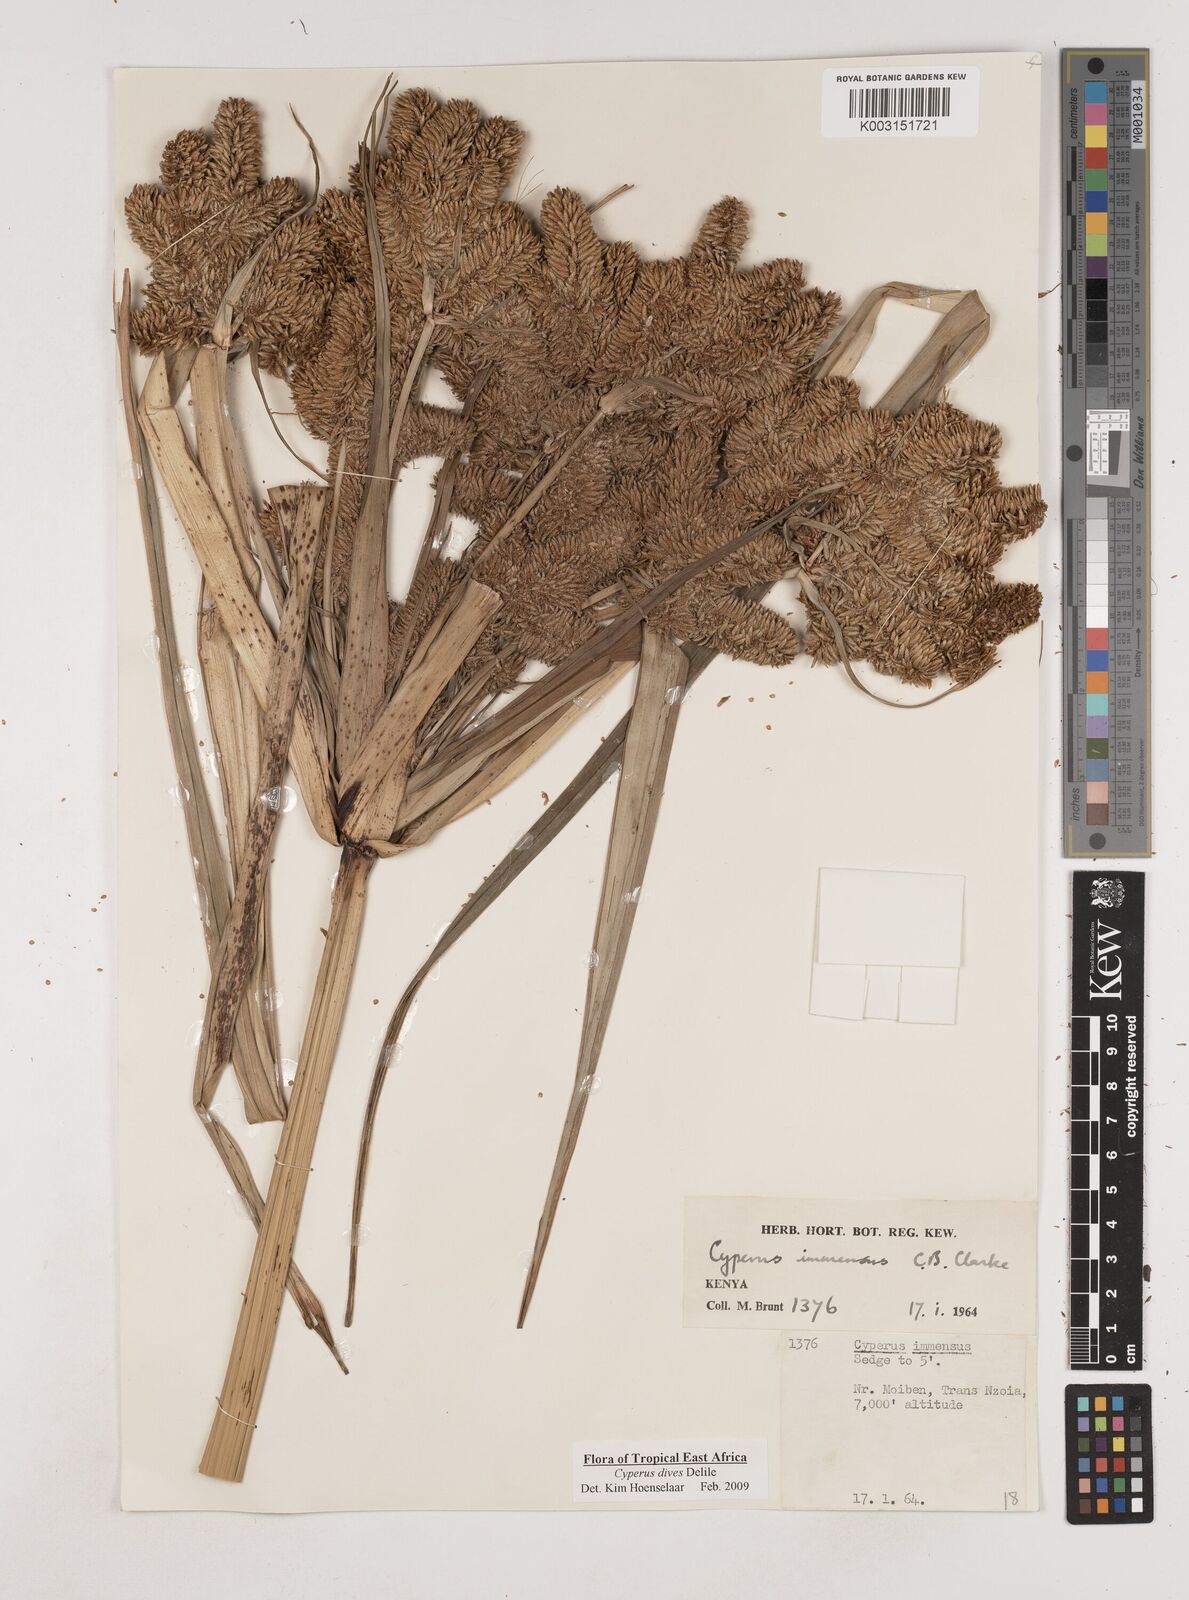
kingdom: Plantae
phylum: Tracheophyta
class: Liliopsida
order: Poales
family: Cyperaceae
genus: Cyperus
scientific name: Cyperus dives
